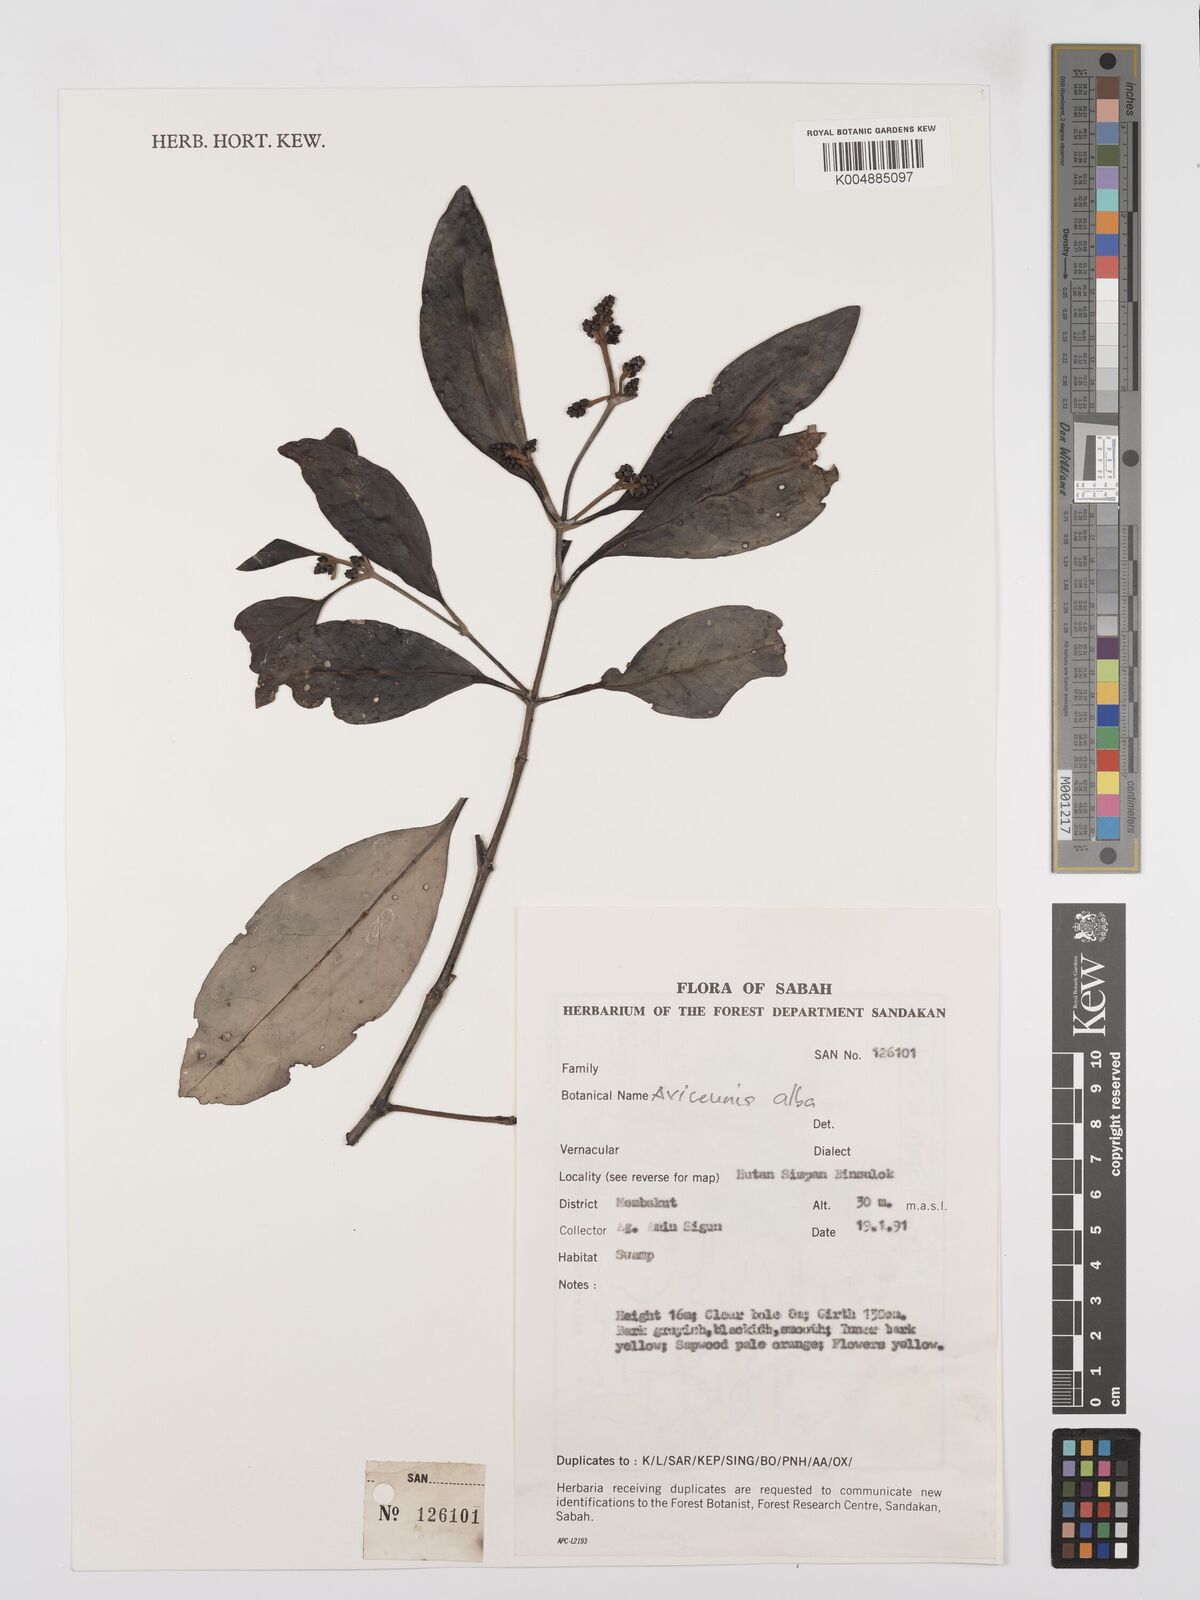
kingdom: Plantae
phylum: Tracheophyta
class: Magnoliopsida
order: Lamiales
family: Acanthaceae
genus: Avicennia
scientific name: Avicennia alba
